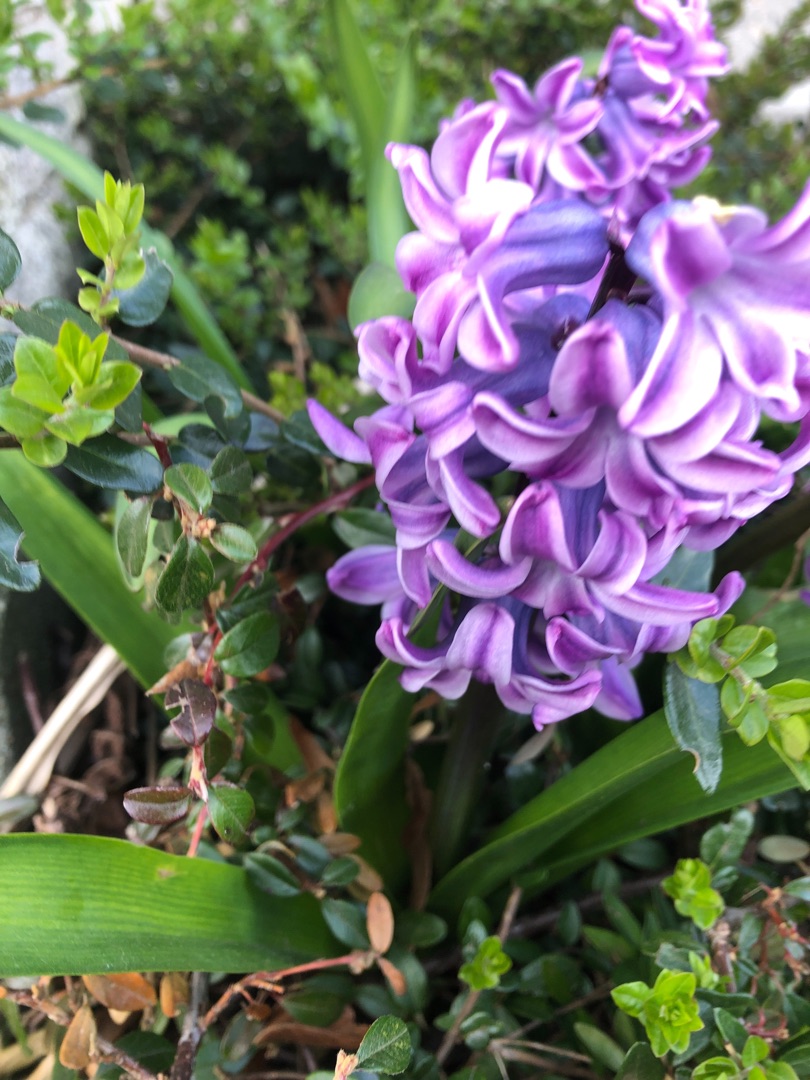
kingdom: Plantae
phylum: Tracheophyta
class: Liliopsida
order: Asparagales
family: Asparagaceae
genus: Hyacinthus
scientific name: Hyacinthus orientalis
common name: Hyacint
